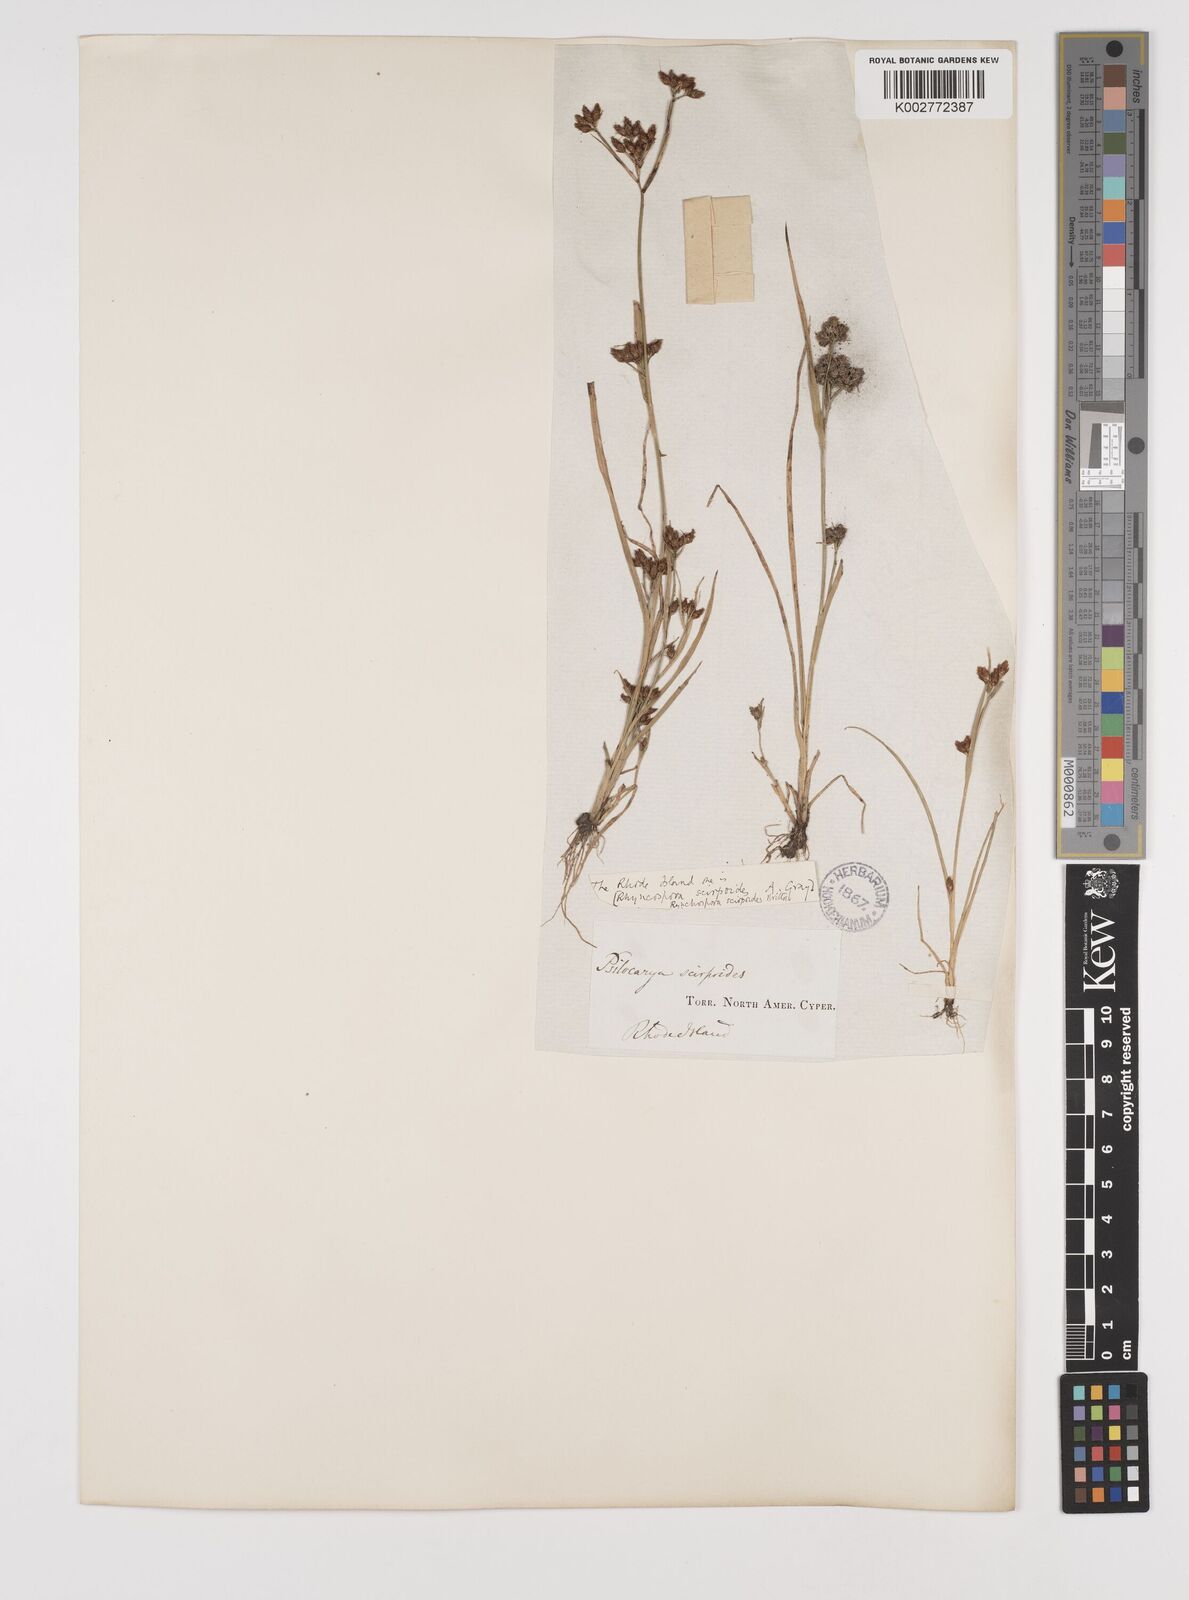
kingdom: Plantae
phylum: Tracheophyta
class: Liliopsida
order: Poales
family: Cyperaceae
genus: Rhynchospora
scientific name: Rhynchospora scirpoides
